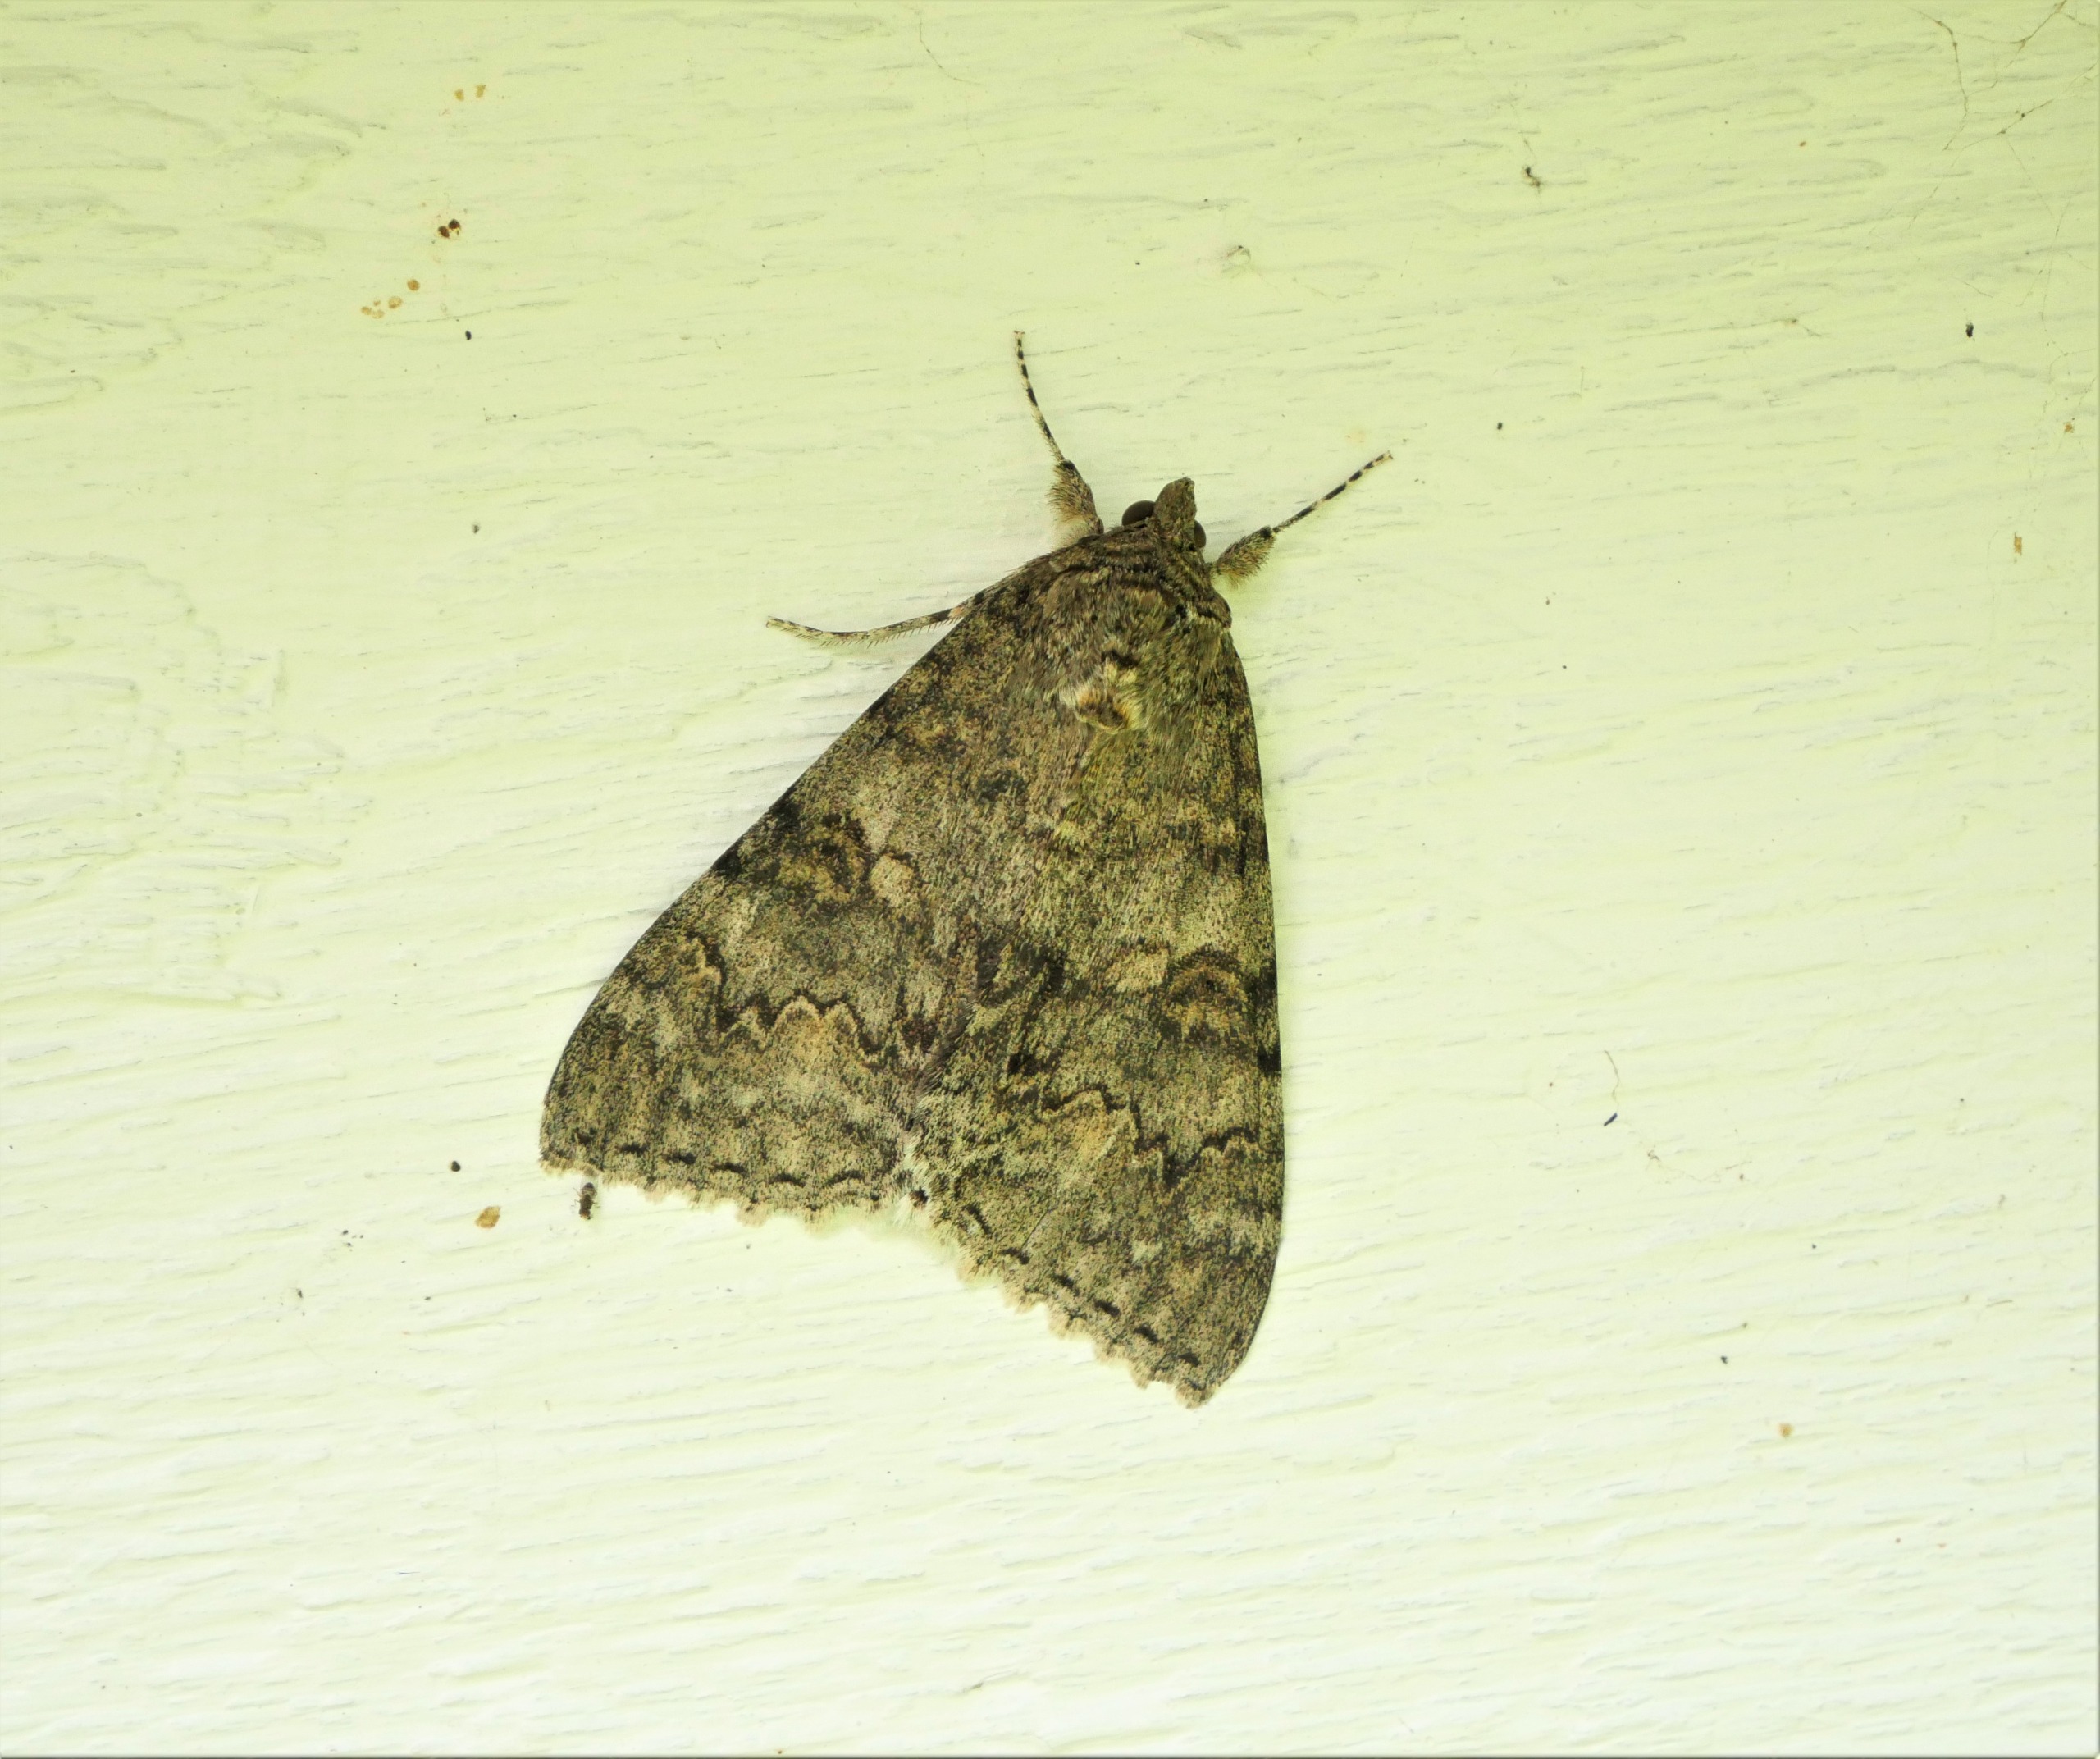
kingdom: Animalia
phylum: Arthropoda
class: Insecta
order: Lepidoptera
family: Erebidae
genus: Catocala
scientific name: Catocala nupta
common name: Rødt ordensbånd
